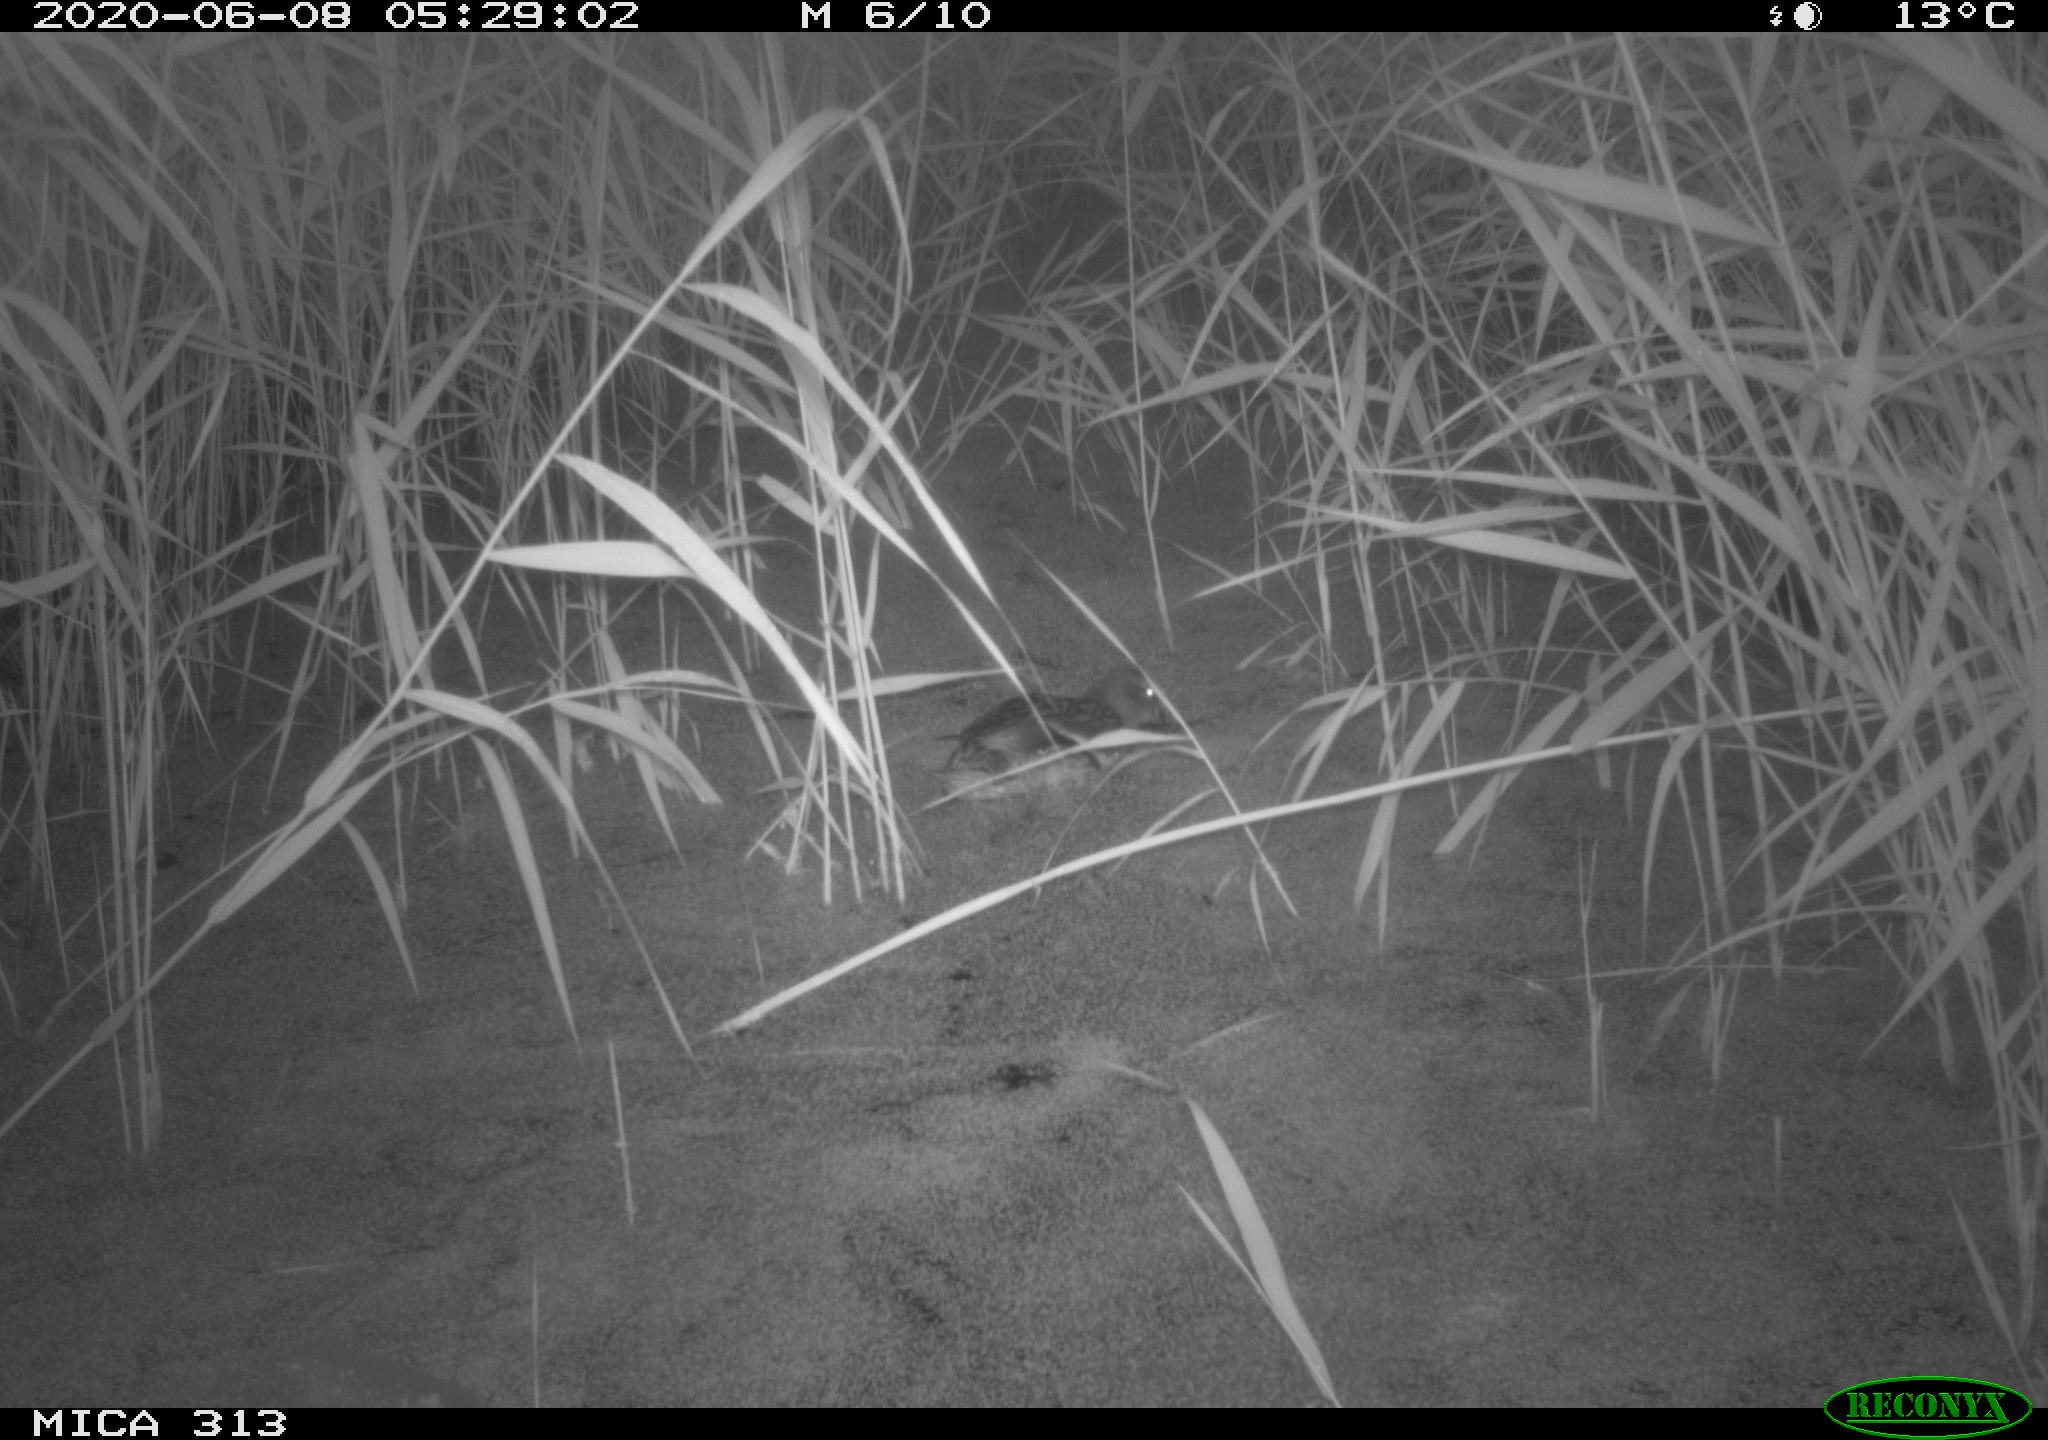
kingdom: Animalia
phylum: Chordata
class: Aves
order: Anseriformes
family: Anatidae
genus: Anas
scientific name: Anas platyrhynchos
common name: Mallard
